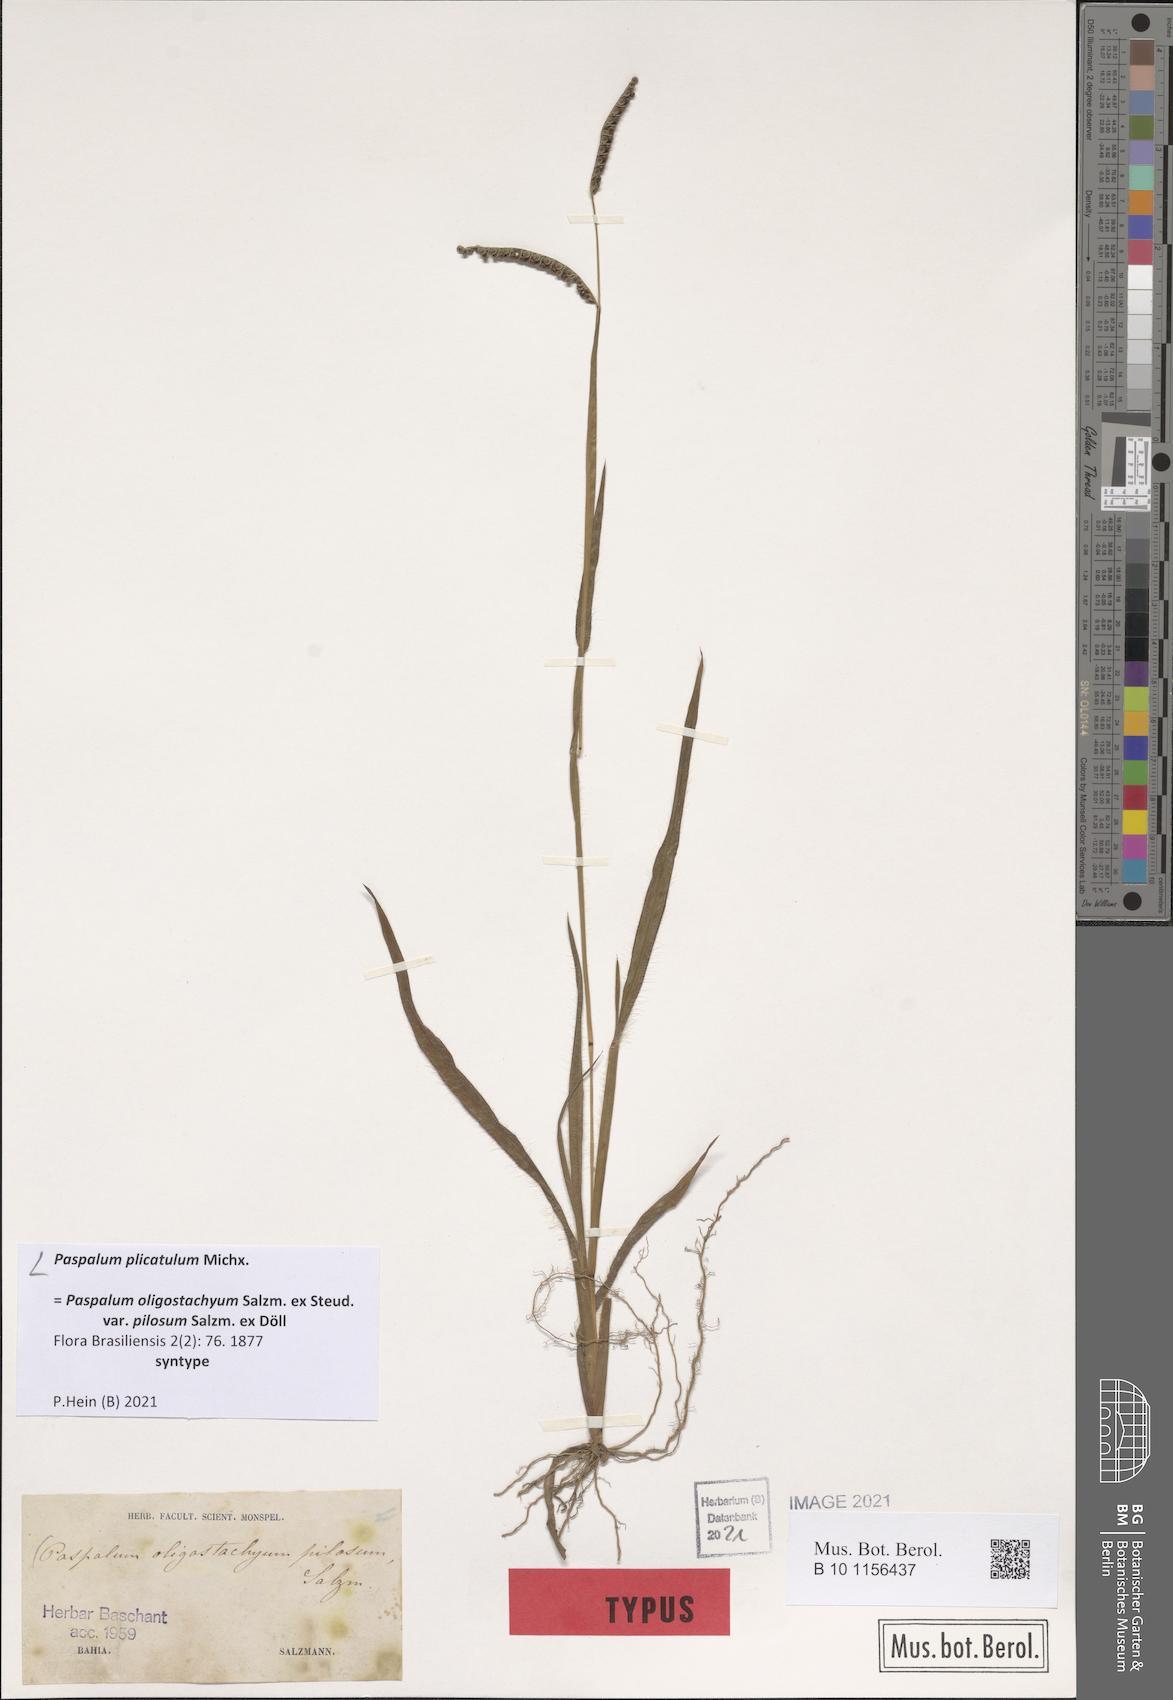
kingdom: Plantae
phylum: Tracheophyta
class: Liliopsida
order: Poales
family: Poaceae
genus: Paspalum
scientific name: Paspalum plicatulum
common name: Top paspalum
